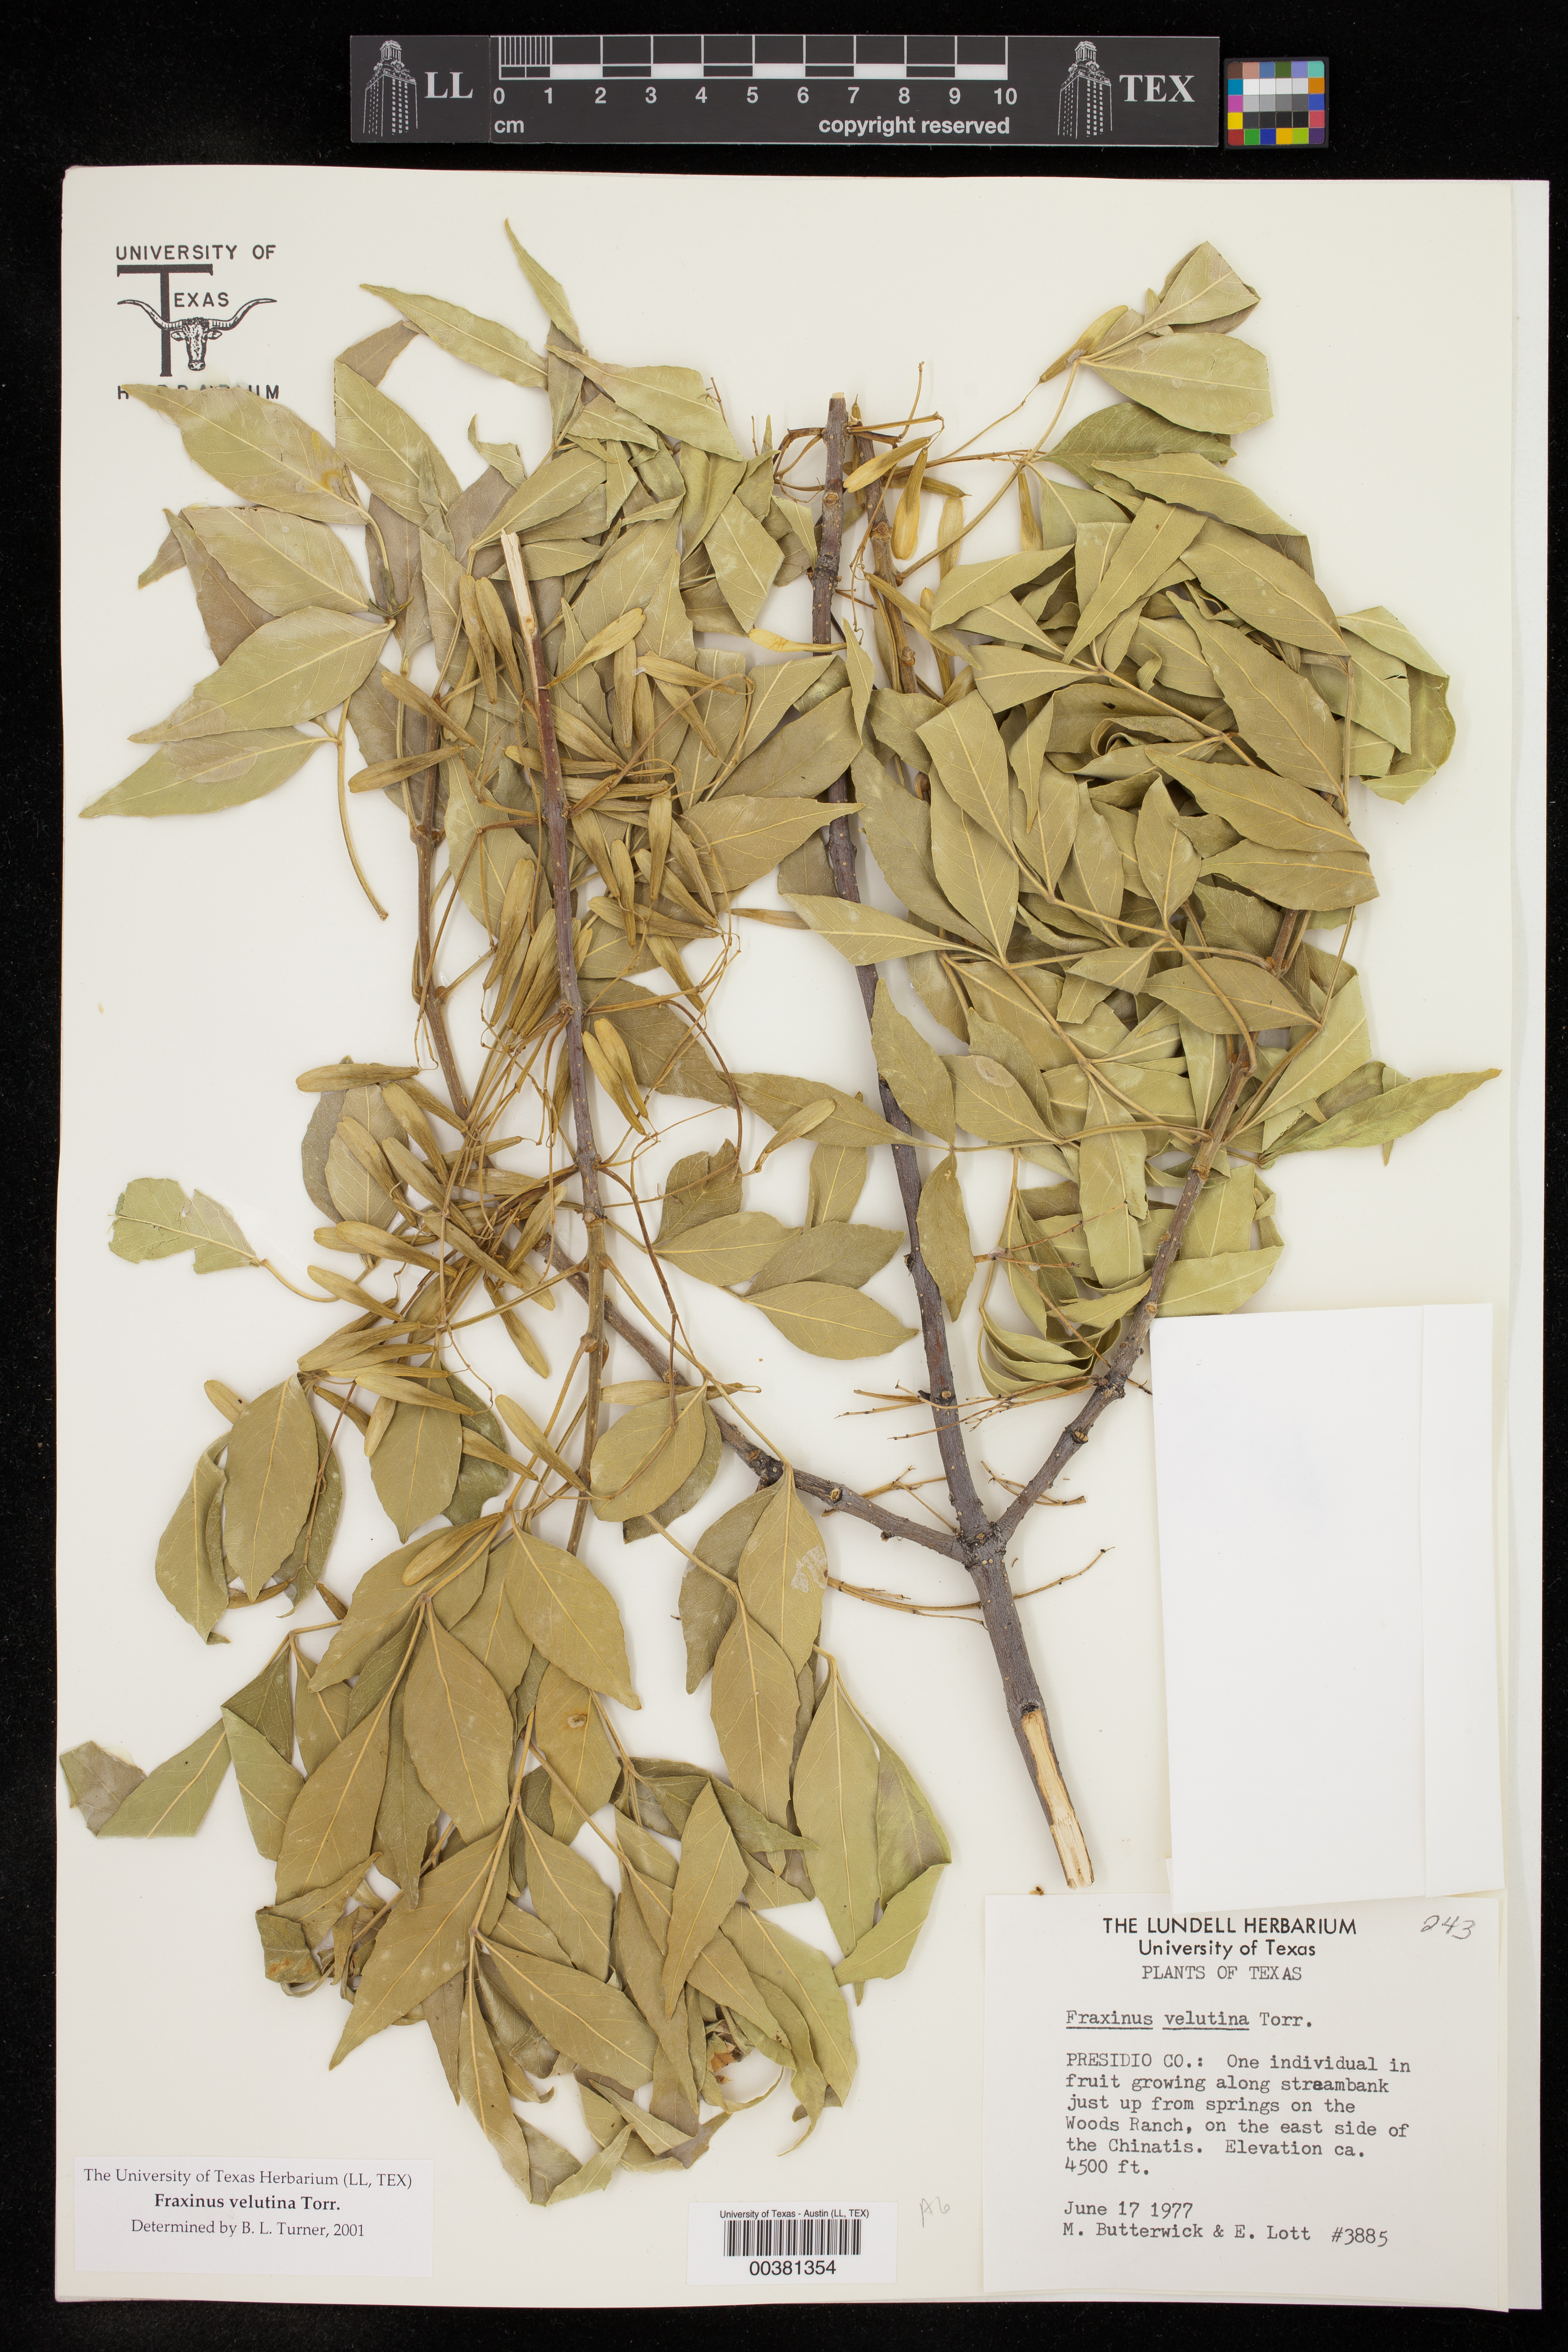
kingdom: Plantae
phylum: Tracheophyta
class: Magnoliopsida
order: Lamiales
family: Oleaceae
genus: Fraxinus
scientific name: Fraxinus velutina
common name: Arizon ash
